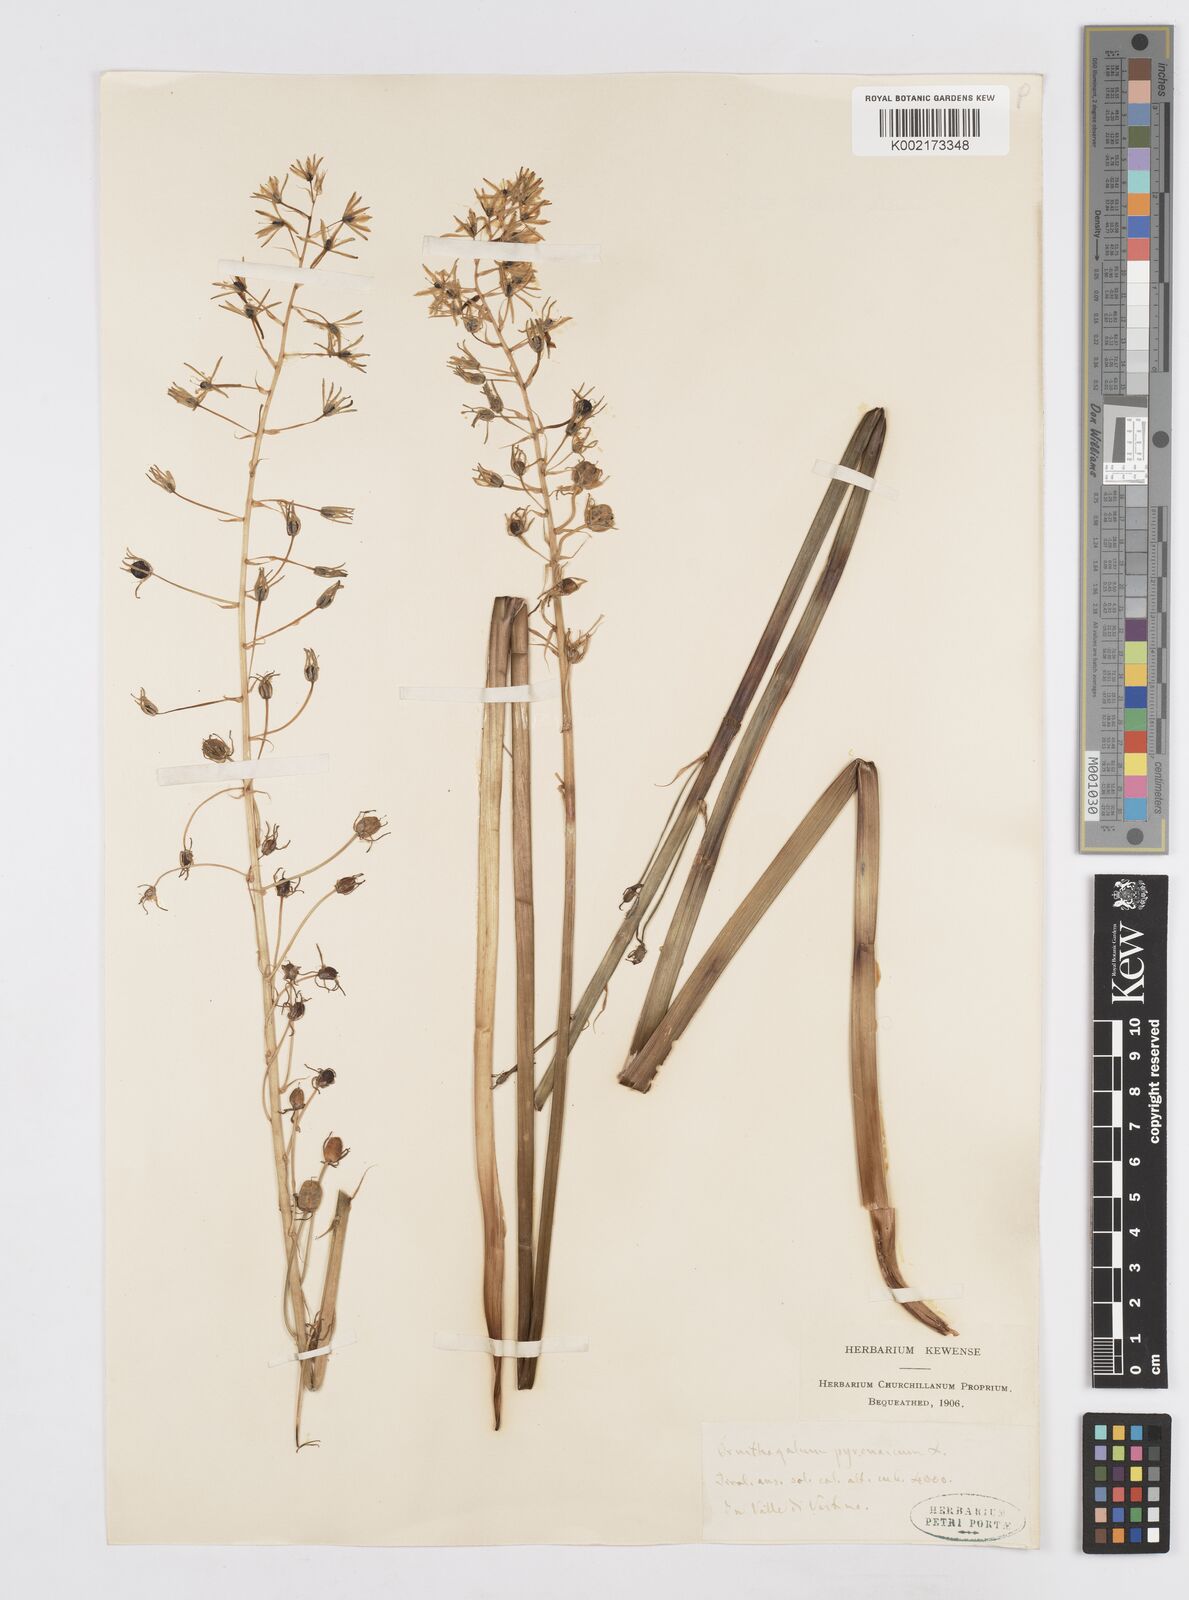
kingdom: Plantae
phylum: Tracheophyta
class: Liliopsida
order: Asparagales
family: Asparagaceae
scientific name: Asparagaceae
